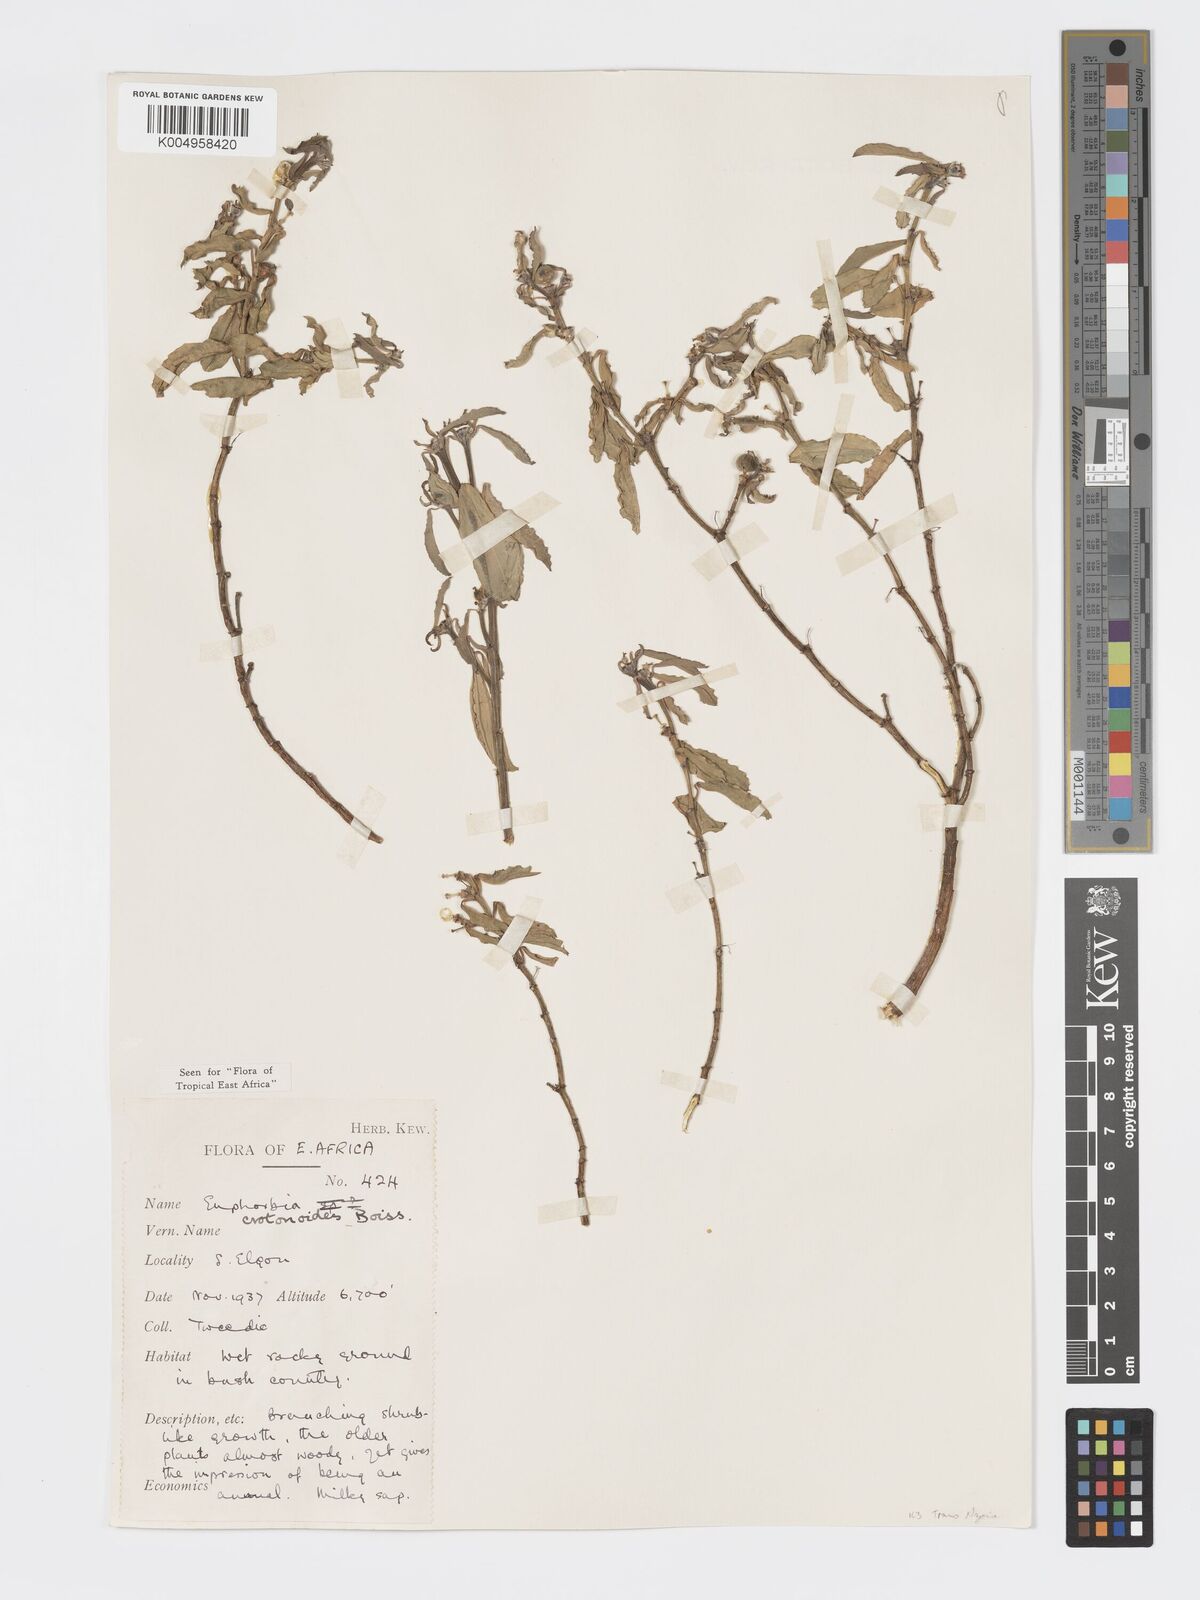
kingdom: Plantae
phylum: Tracheophyta
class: Magnoliopsida
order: Malpighiales
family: Euphorbiaceae
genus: Euphorbia
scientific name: Euphorbia crotonoides
